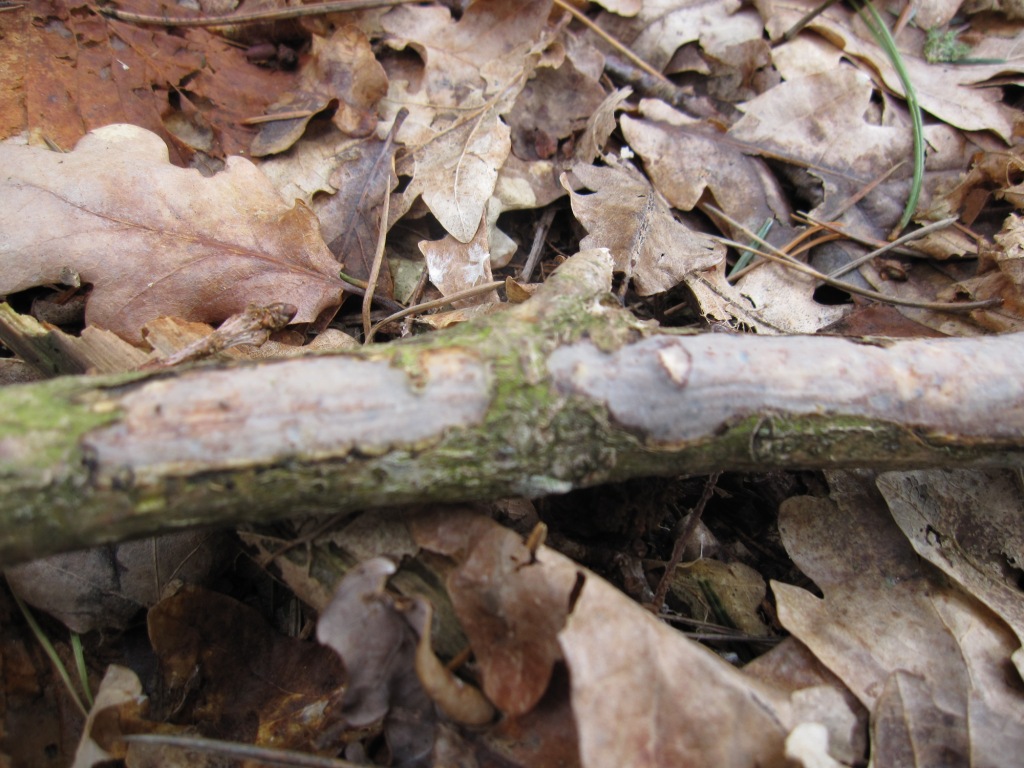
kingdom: Fungi
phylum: Basidiomycota
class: Agaricomycetes
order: Corticiales
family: Vuilleminiaceae
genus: Vuilleminia
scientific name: Vuilleminia comedens
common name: almindelig barksprænger
